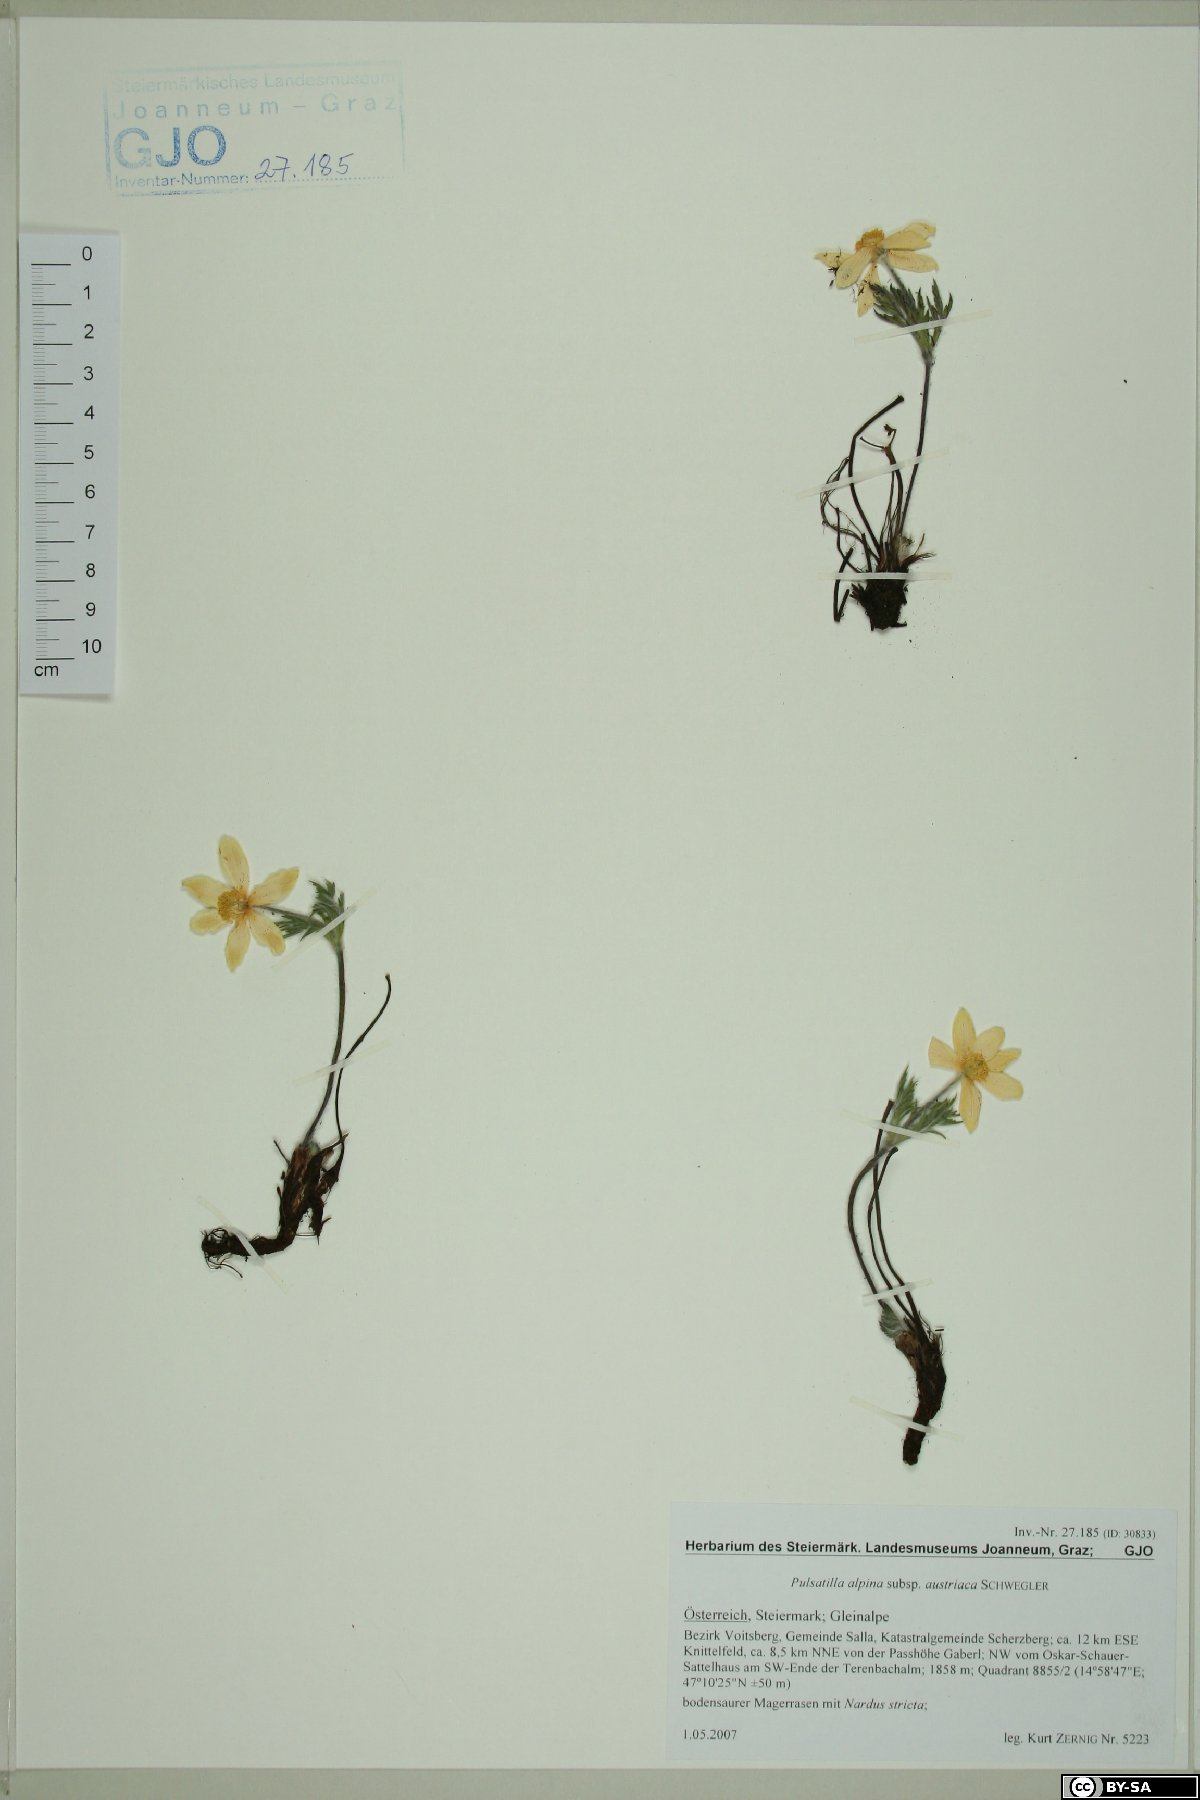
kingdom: Plantae
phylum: Tracheophyta
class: Magnoliopsida
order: Ranunculales
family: Ranunculaceae
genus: Pulsatilla
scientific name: Pulsatilla alpina
